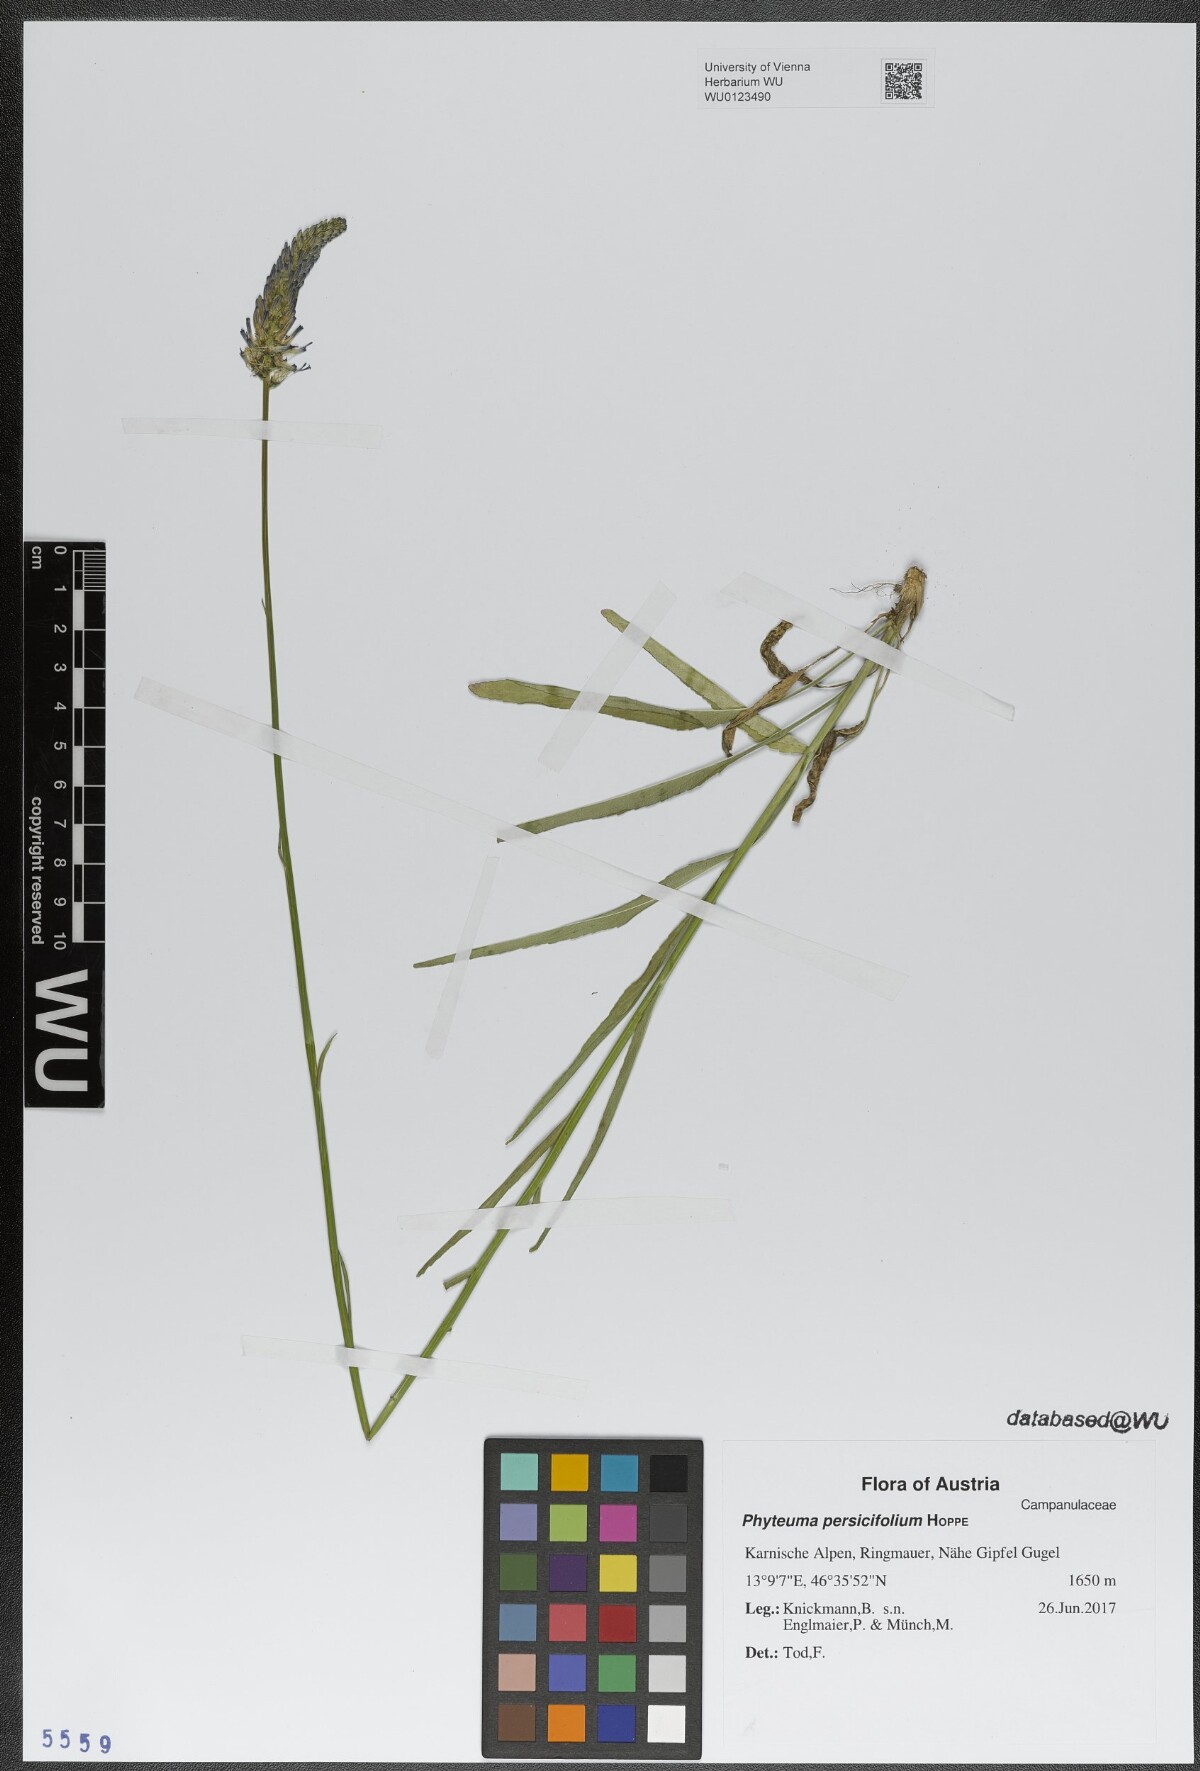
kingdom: Plantae
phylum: Tracheophyta
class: Magnoliopsida
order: Asterales
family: Campanulaceae
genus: Phyteuma
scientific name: Phyteuma persicifolium
